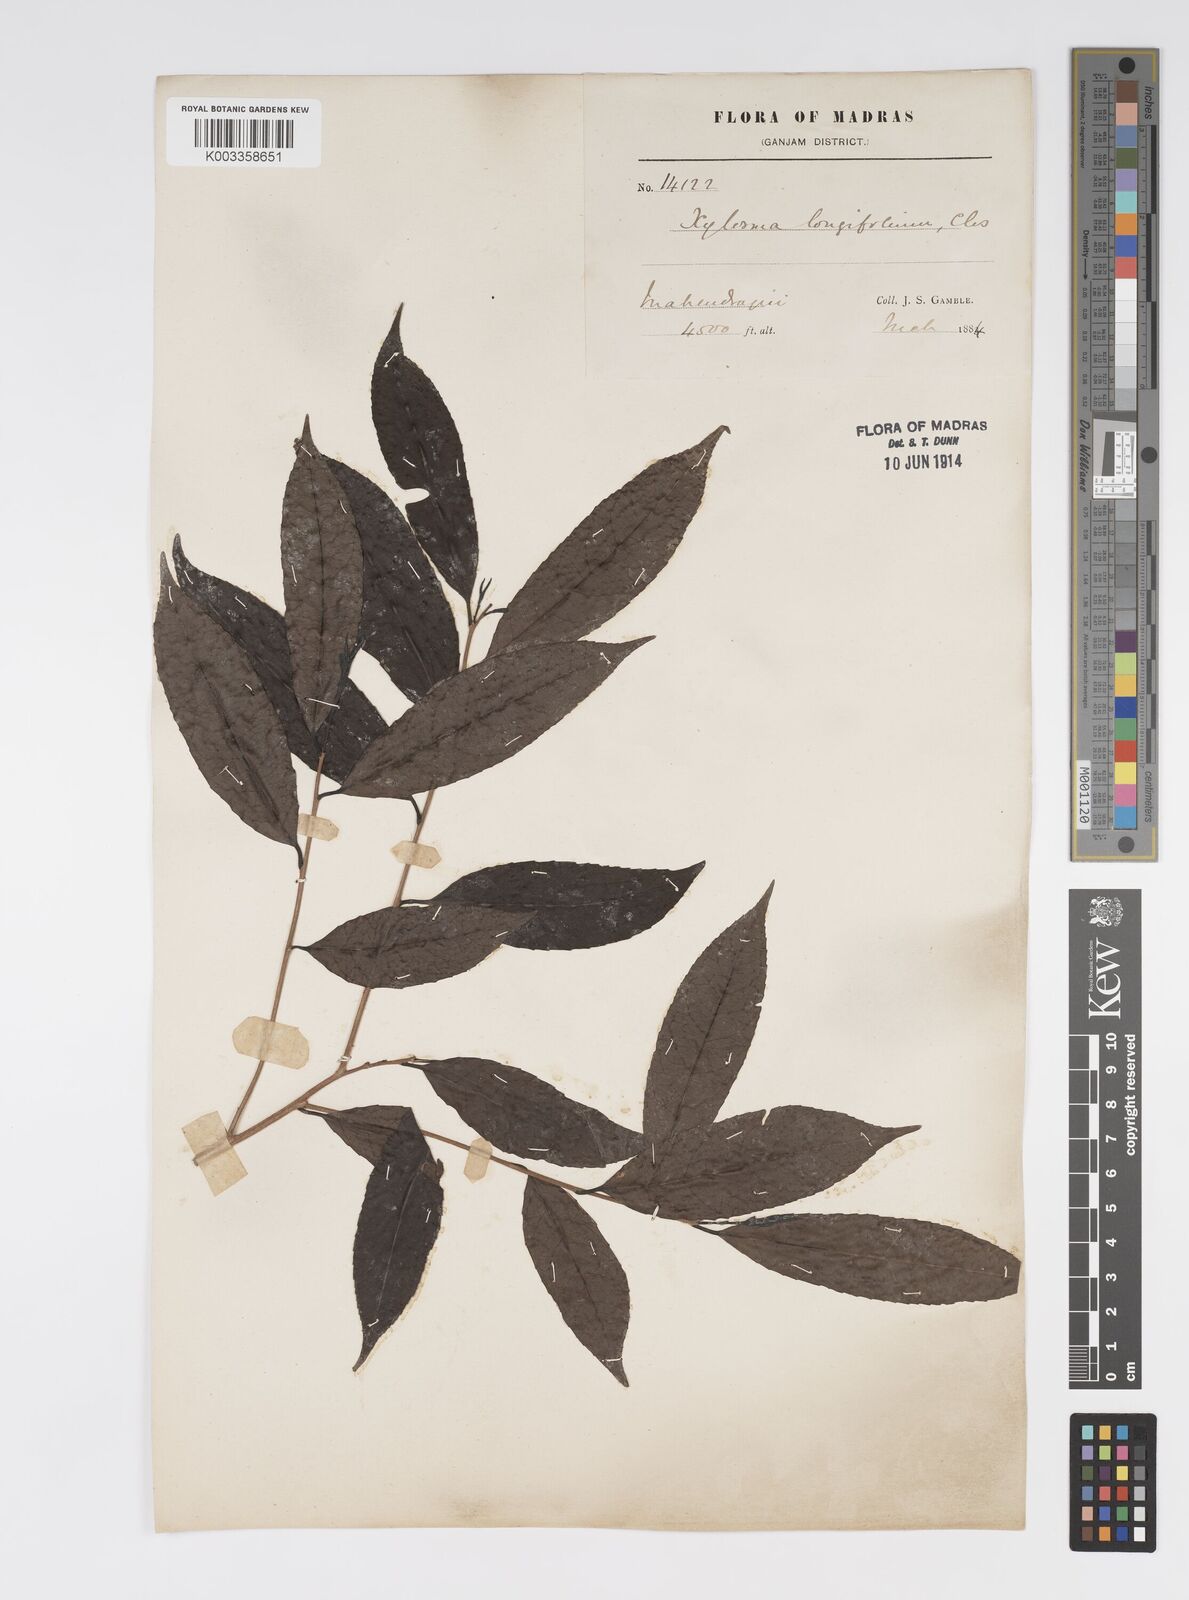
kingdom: Plantae
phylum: Tracheophyta
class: Magnoliopsida
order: Malpighiales
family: Salicaceae
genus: Xylosma
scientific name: Xylosma longifolia
